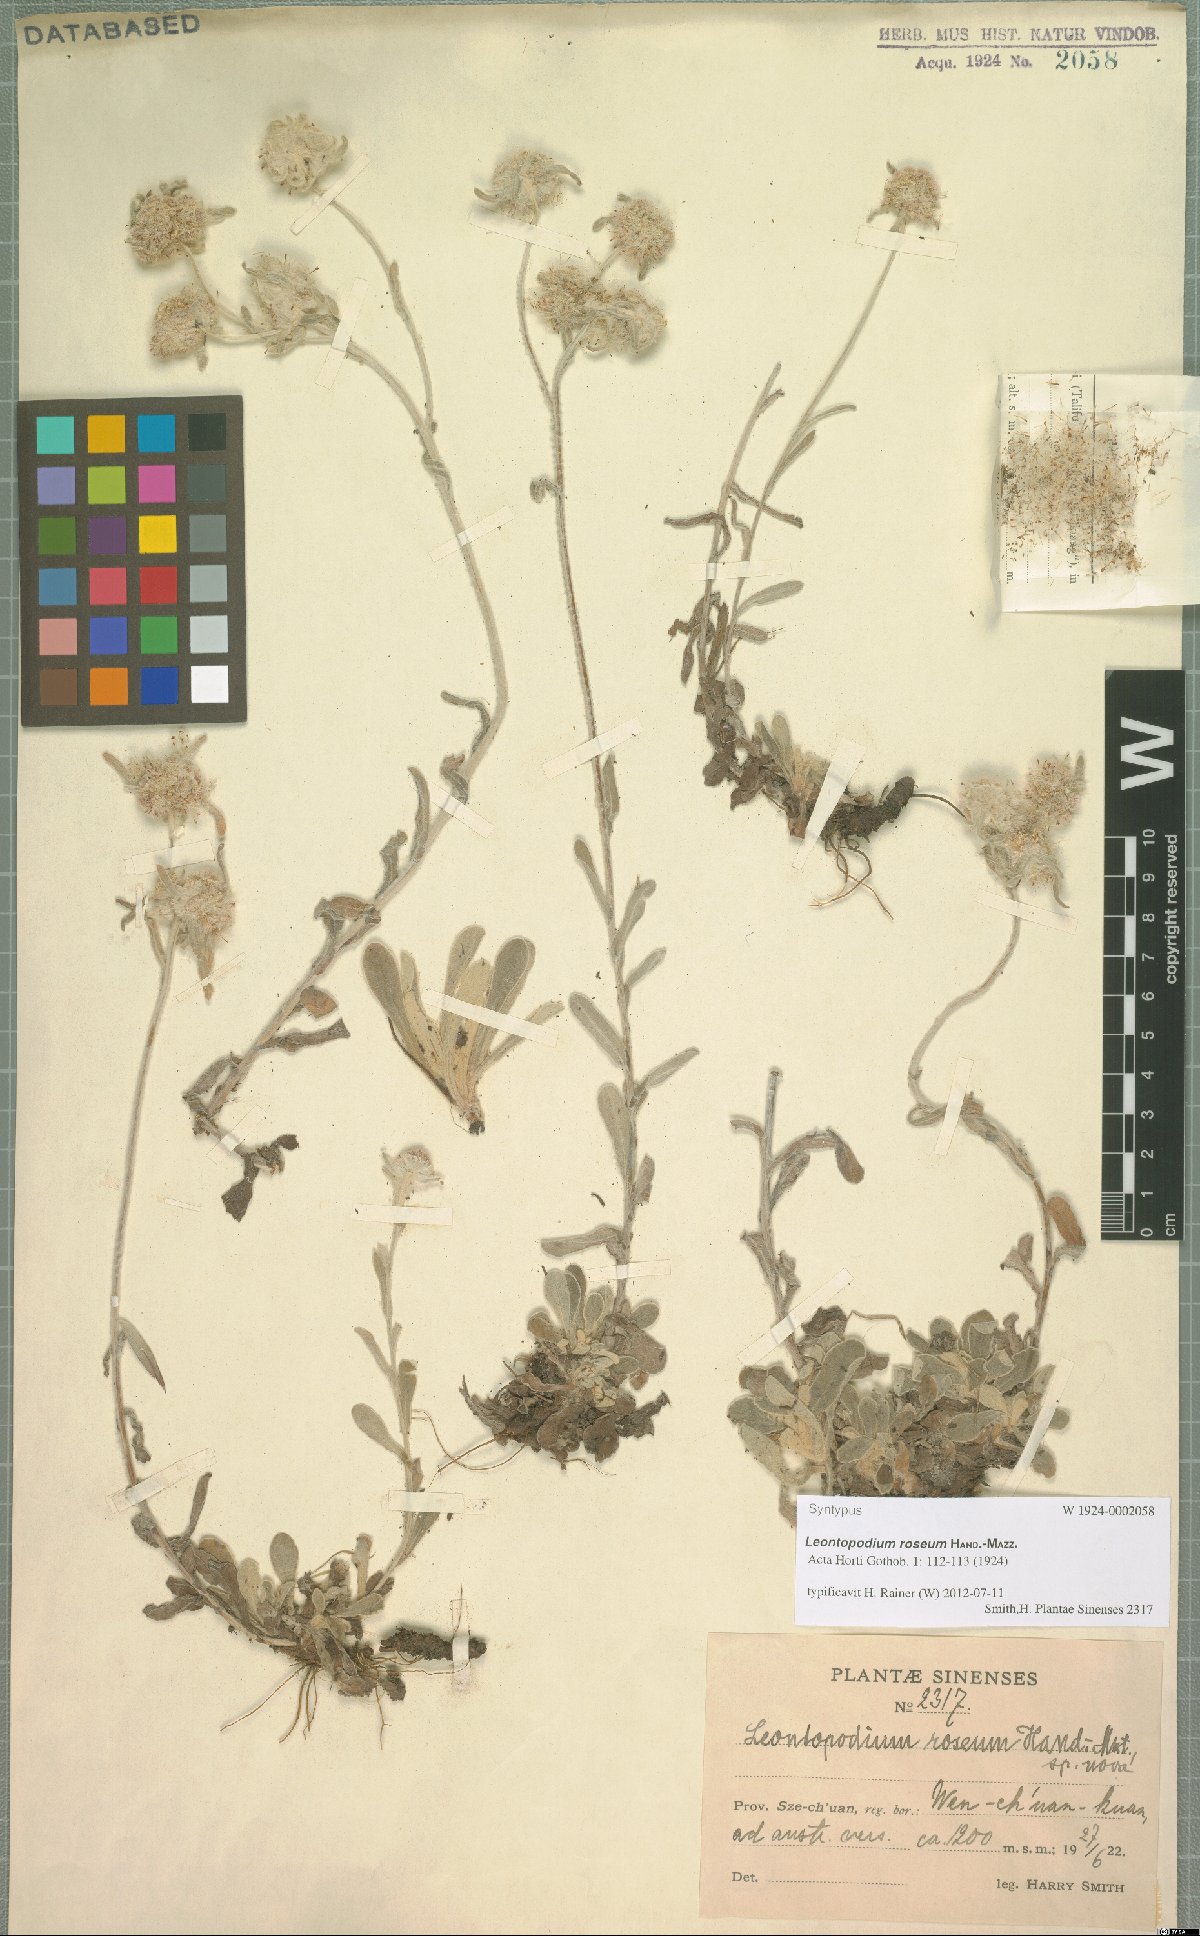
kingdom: Plantae
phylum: Tracheophyta
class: Magnoliopsida
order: Asterales
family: Asteraceae
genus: Leontopodium
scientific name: Leontopodium roseum
